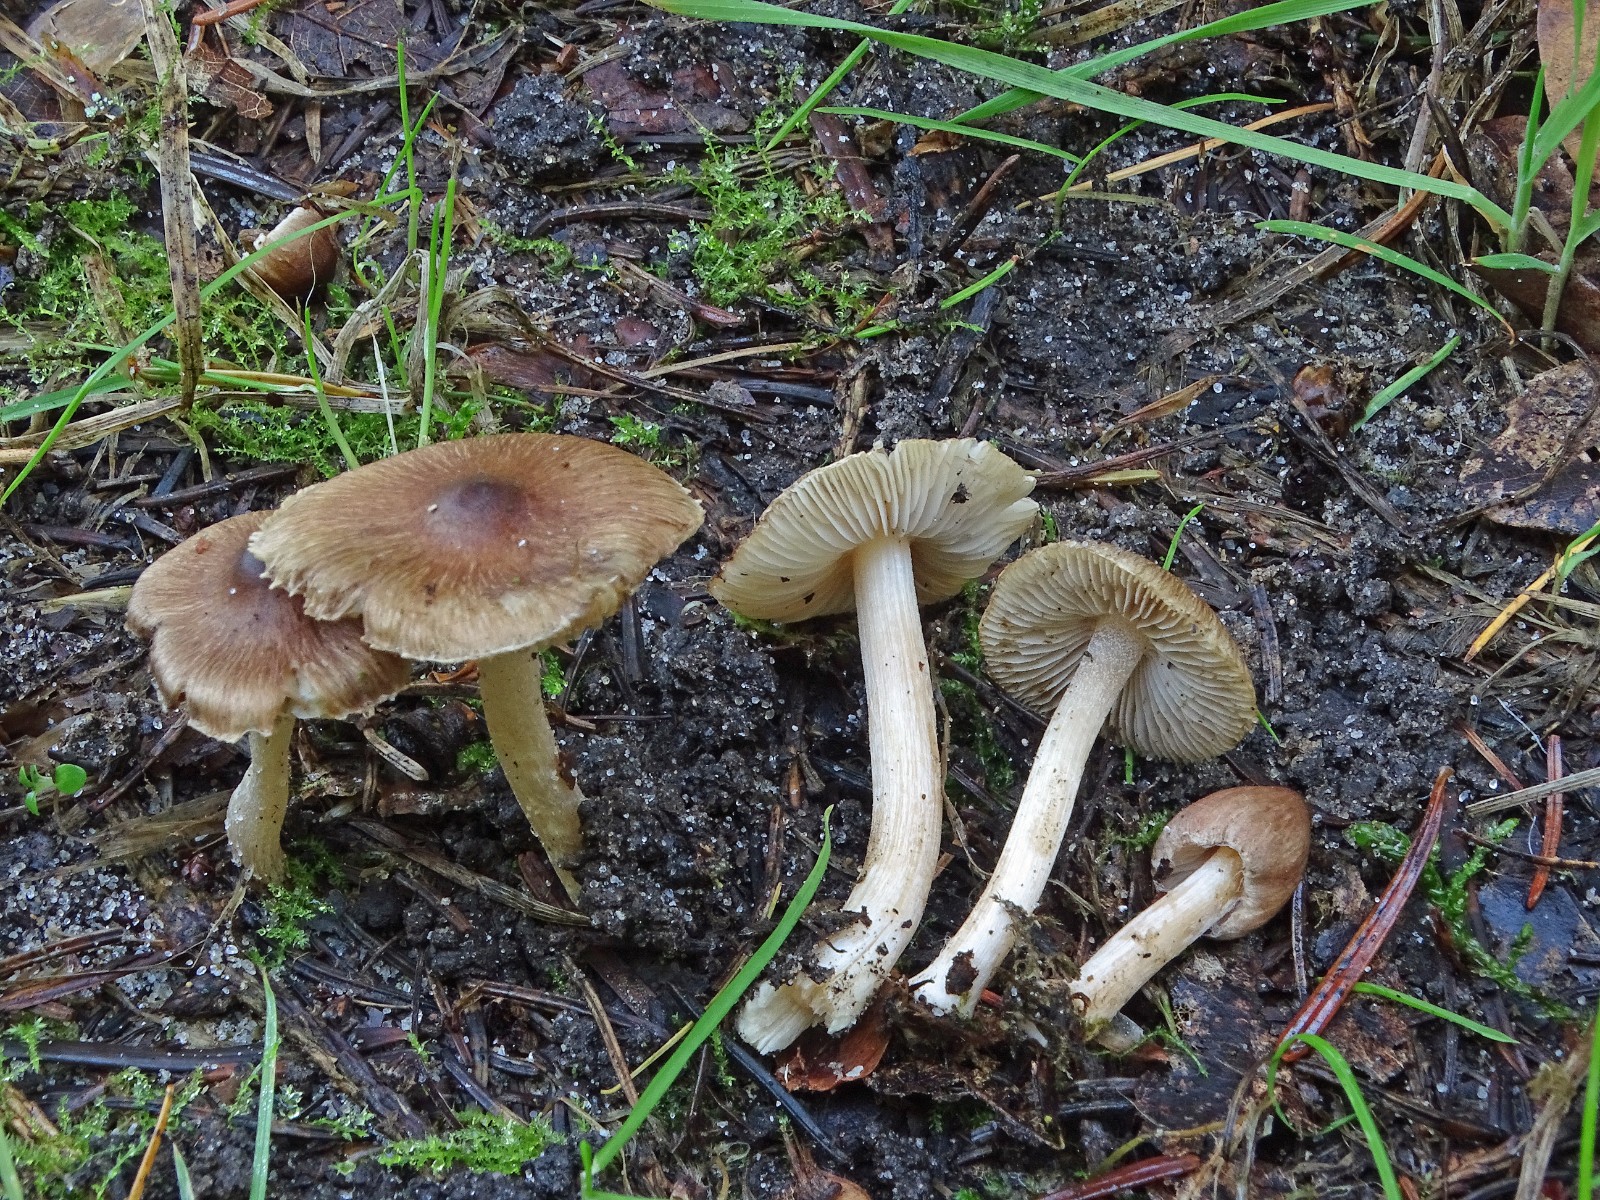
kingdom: Fungi
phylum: Basidiomycota
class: Agaricomycetes
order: Agaricales
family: Inocybaceae
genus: Inocybe
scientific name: Inocybe
